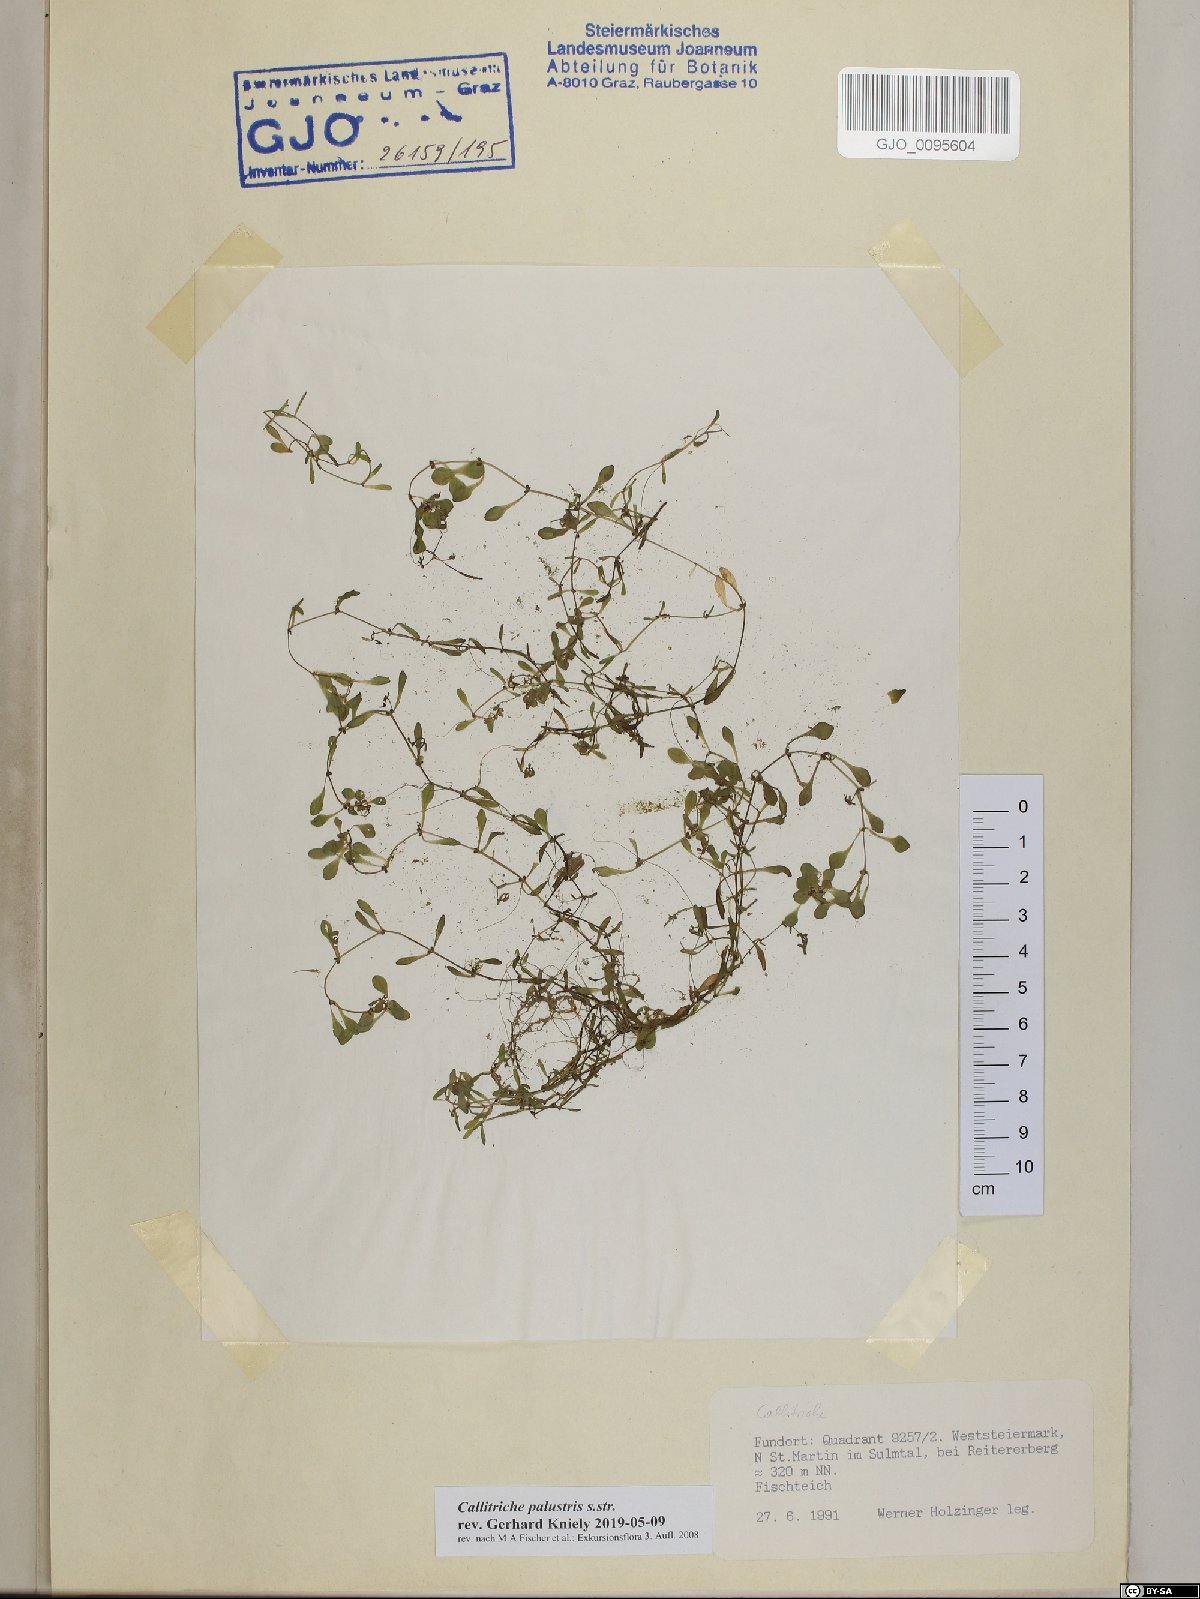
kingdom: Plantae
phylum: Tracheophyta
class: Magnoliopsida
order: Lamiales
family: Plantaginaceae
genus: Callitriche
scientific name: Callitriche palustris
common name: Spring water-starwort
